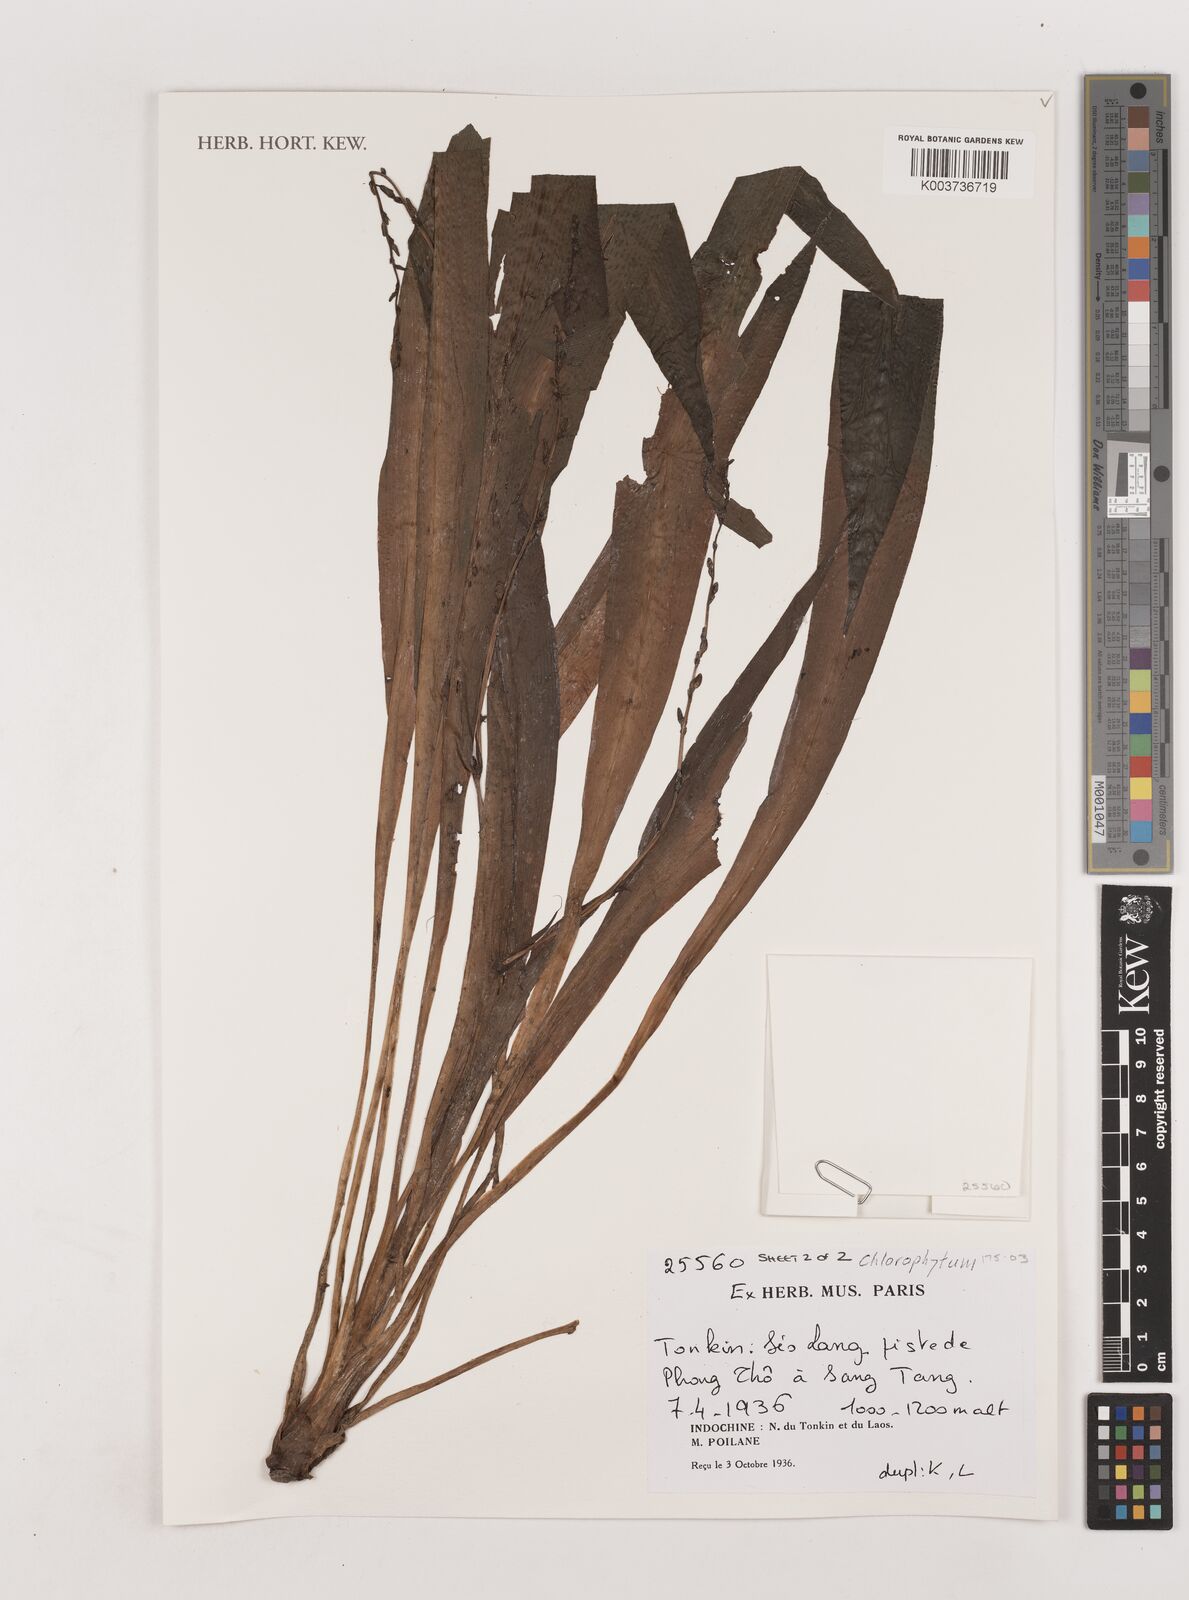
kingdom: Plantae
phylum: Tracheophyta
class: Liliopsida
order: Asparagales
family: Asparagaceae
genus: Chlorophytum
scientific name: Chlorophytum
